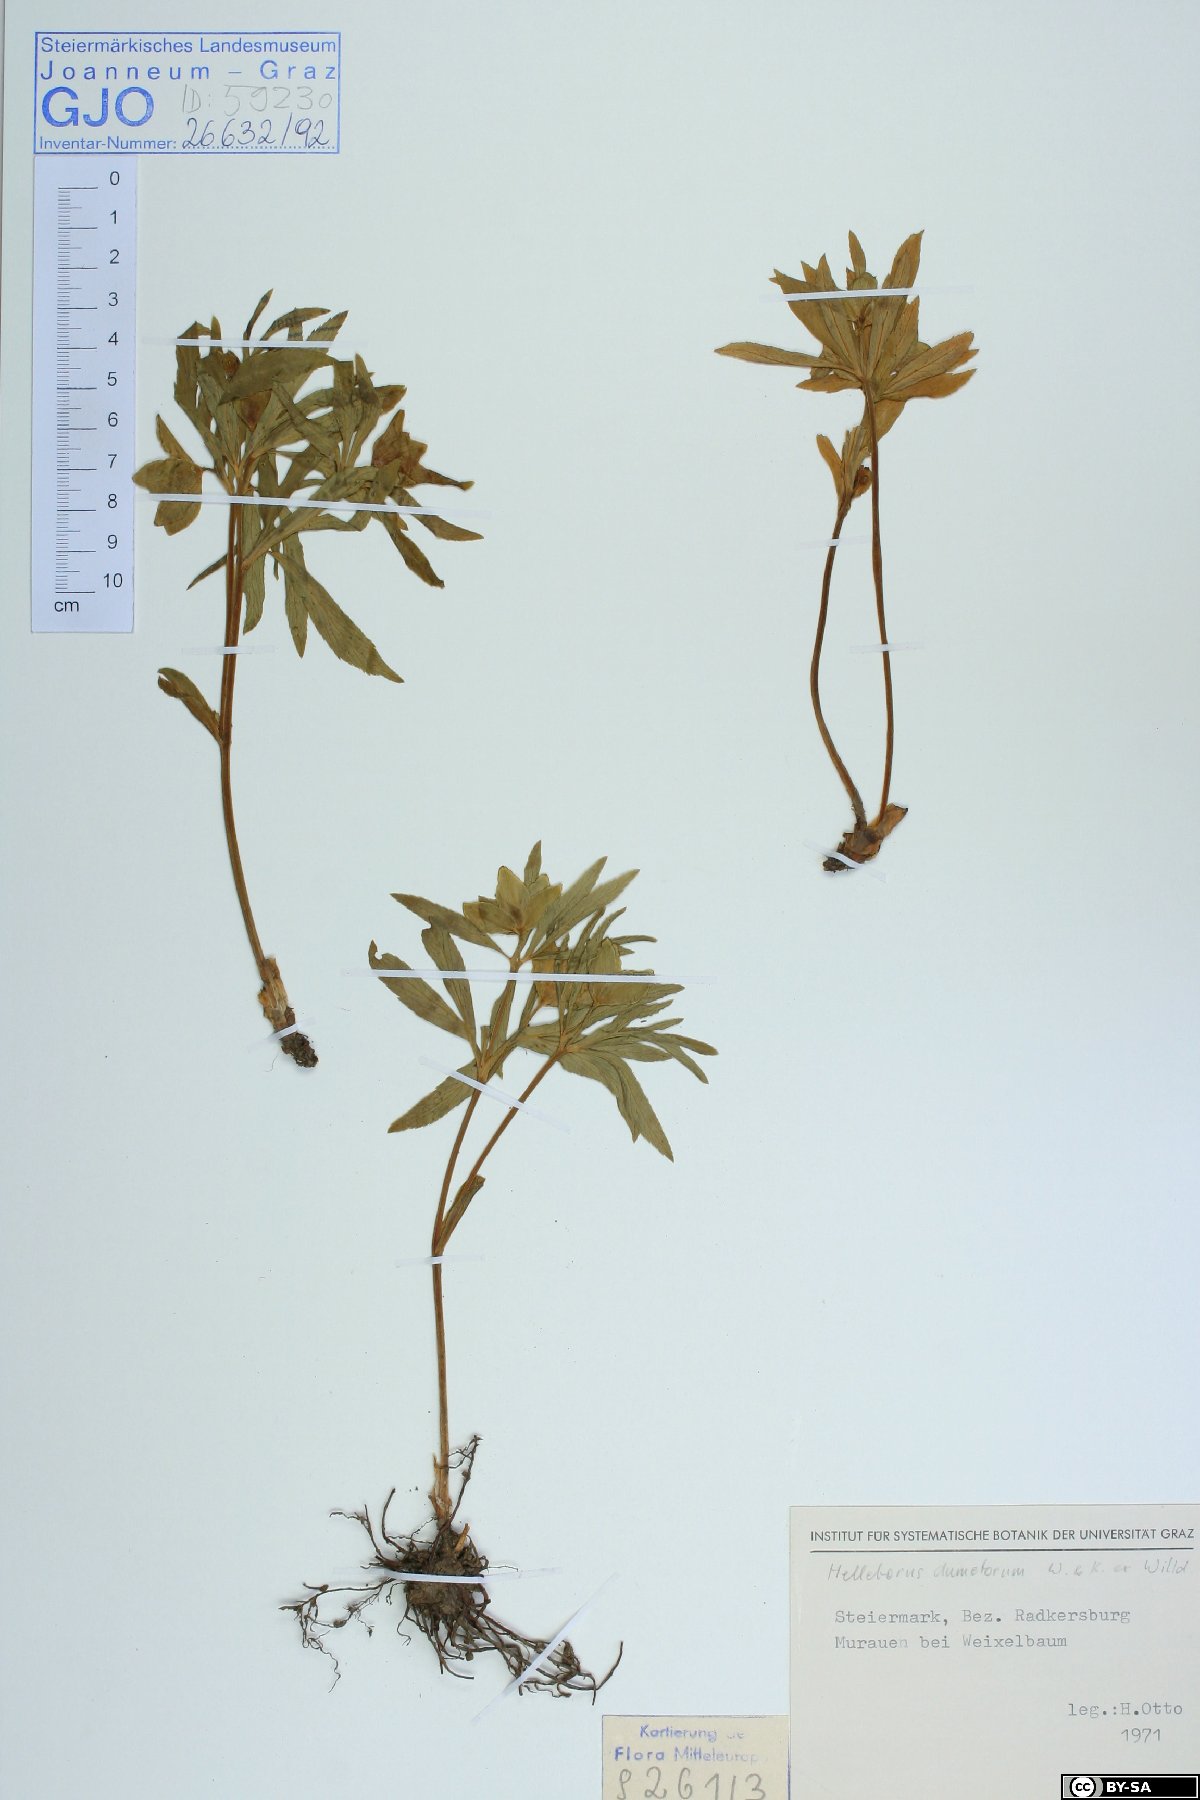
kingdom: Plantae
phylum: Tracheophyta
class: Magnoliopsida
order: Ranunculales
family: Ranunculaceae
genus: Helleborus
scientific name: Helleborus dumetorum
